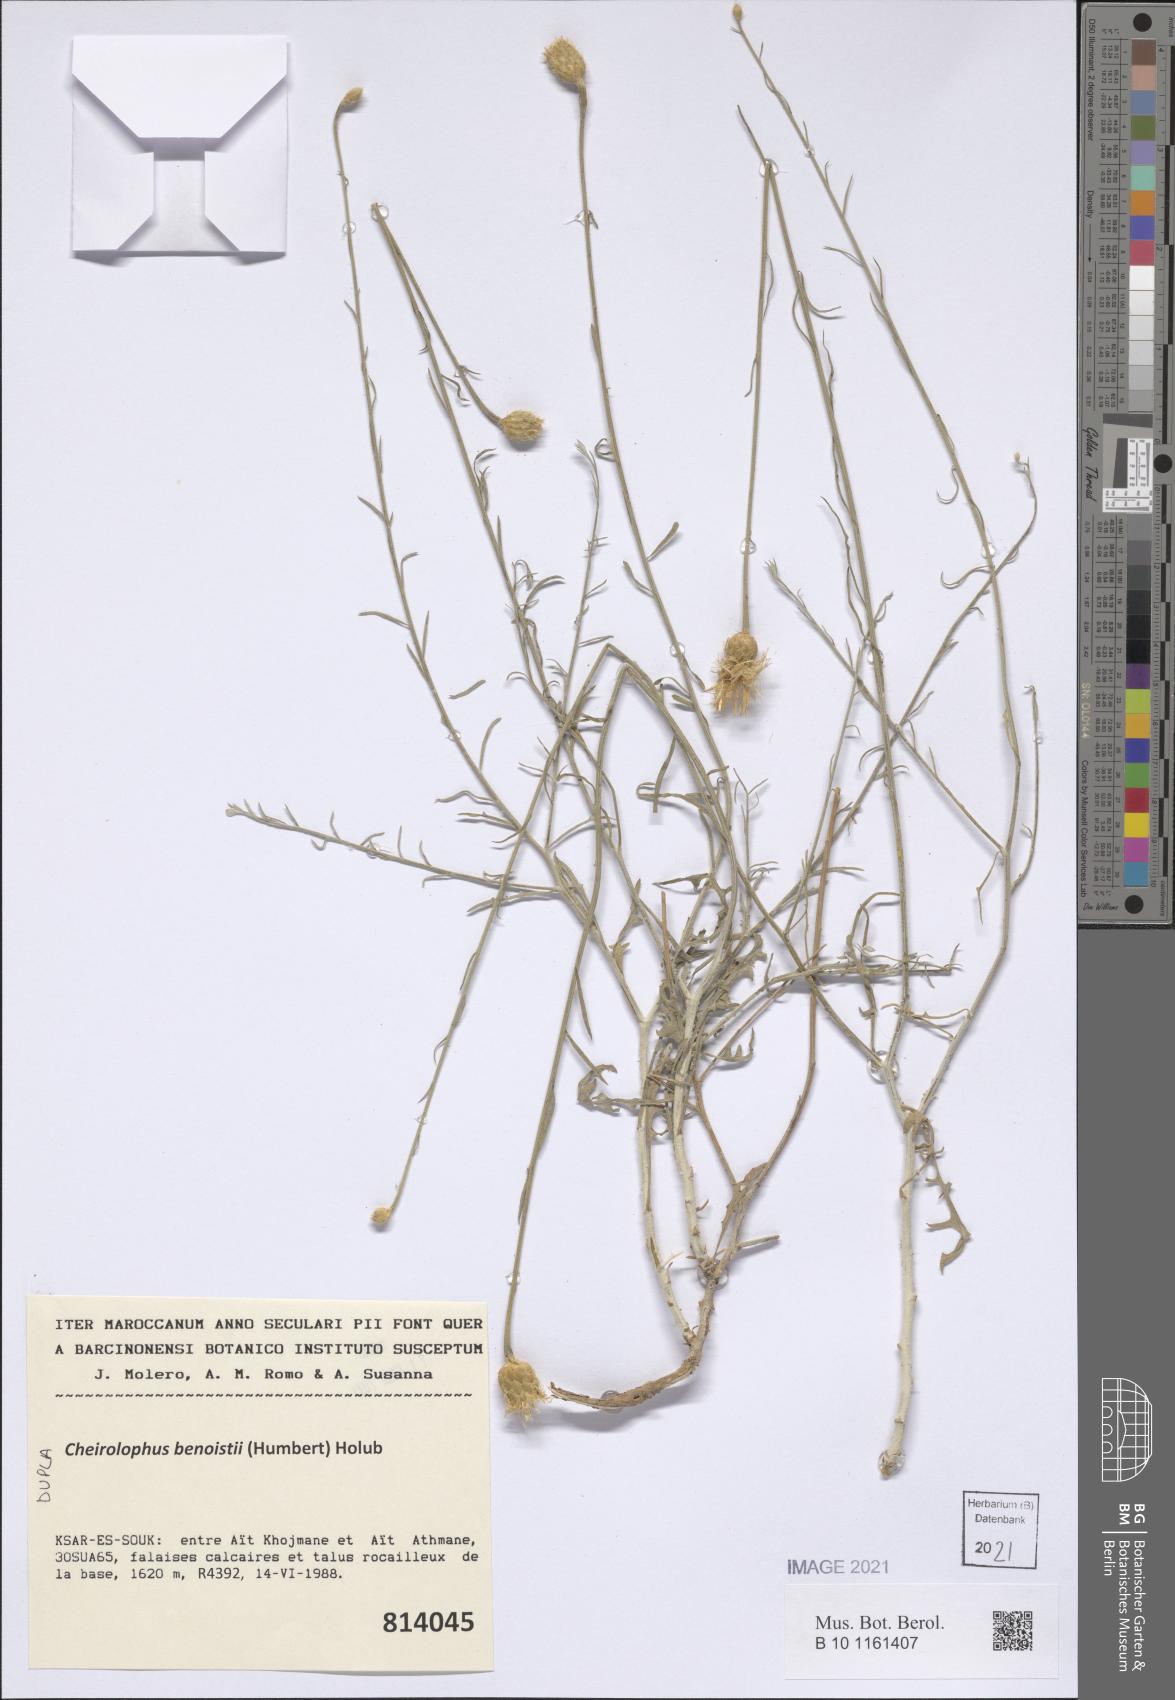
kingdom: Plantae
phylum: Tracheophyta
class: Magnoliopsida
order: Asterales
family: Asteraceae
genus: Cheirolophus
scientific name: Cheirolophus benoistii
